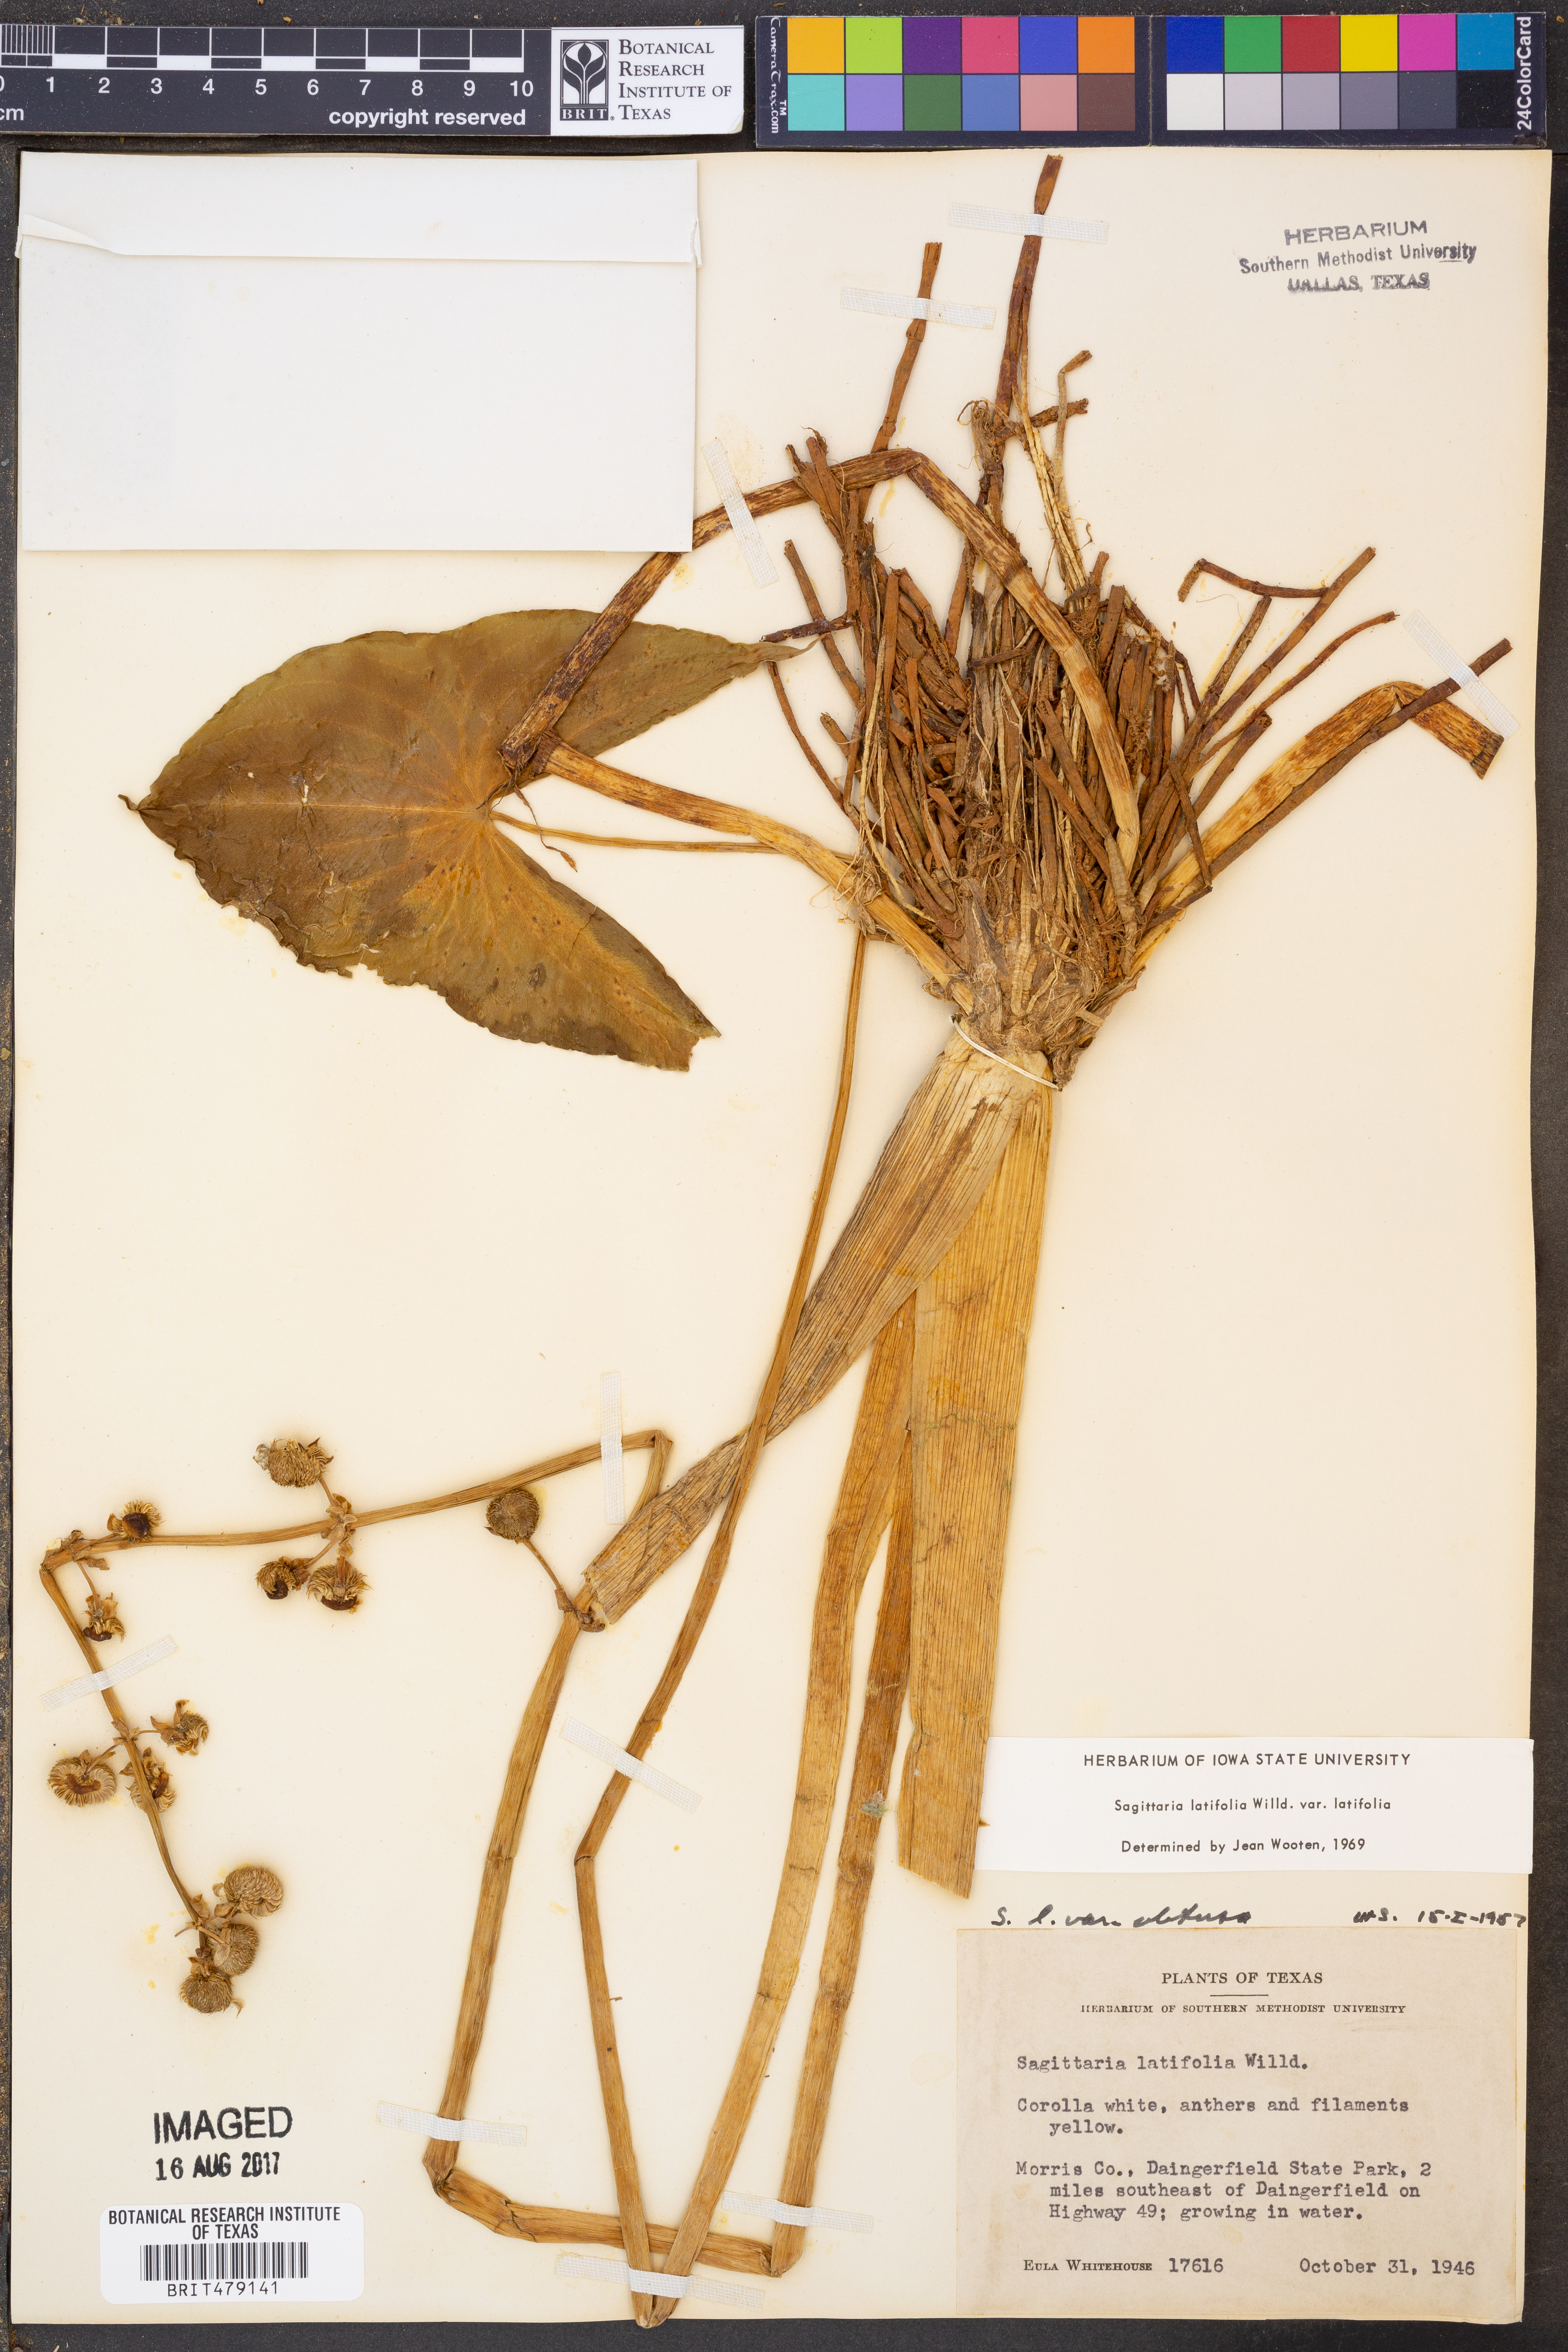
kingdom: Plantae
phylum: Tracheophyta
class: Liliopsida
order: Alismatales
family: Alismataceae
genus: Sagittaria
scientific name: Sagittaria latifolia
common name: Duck-potato
